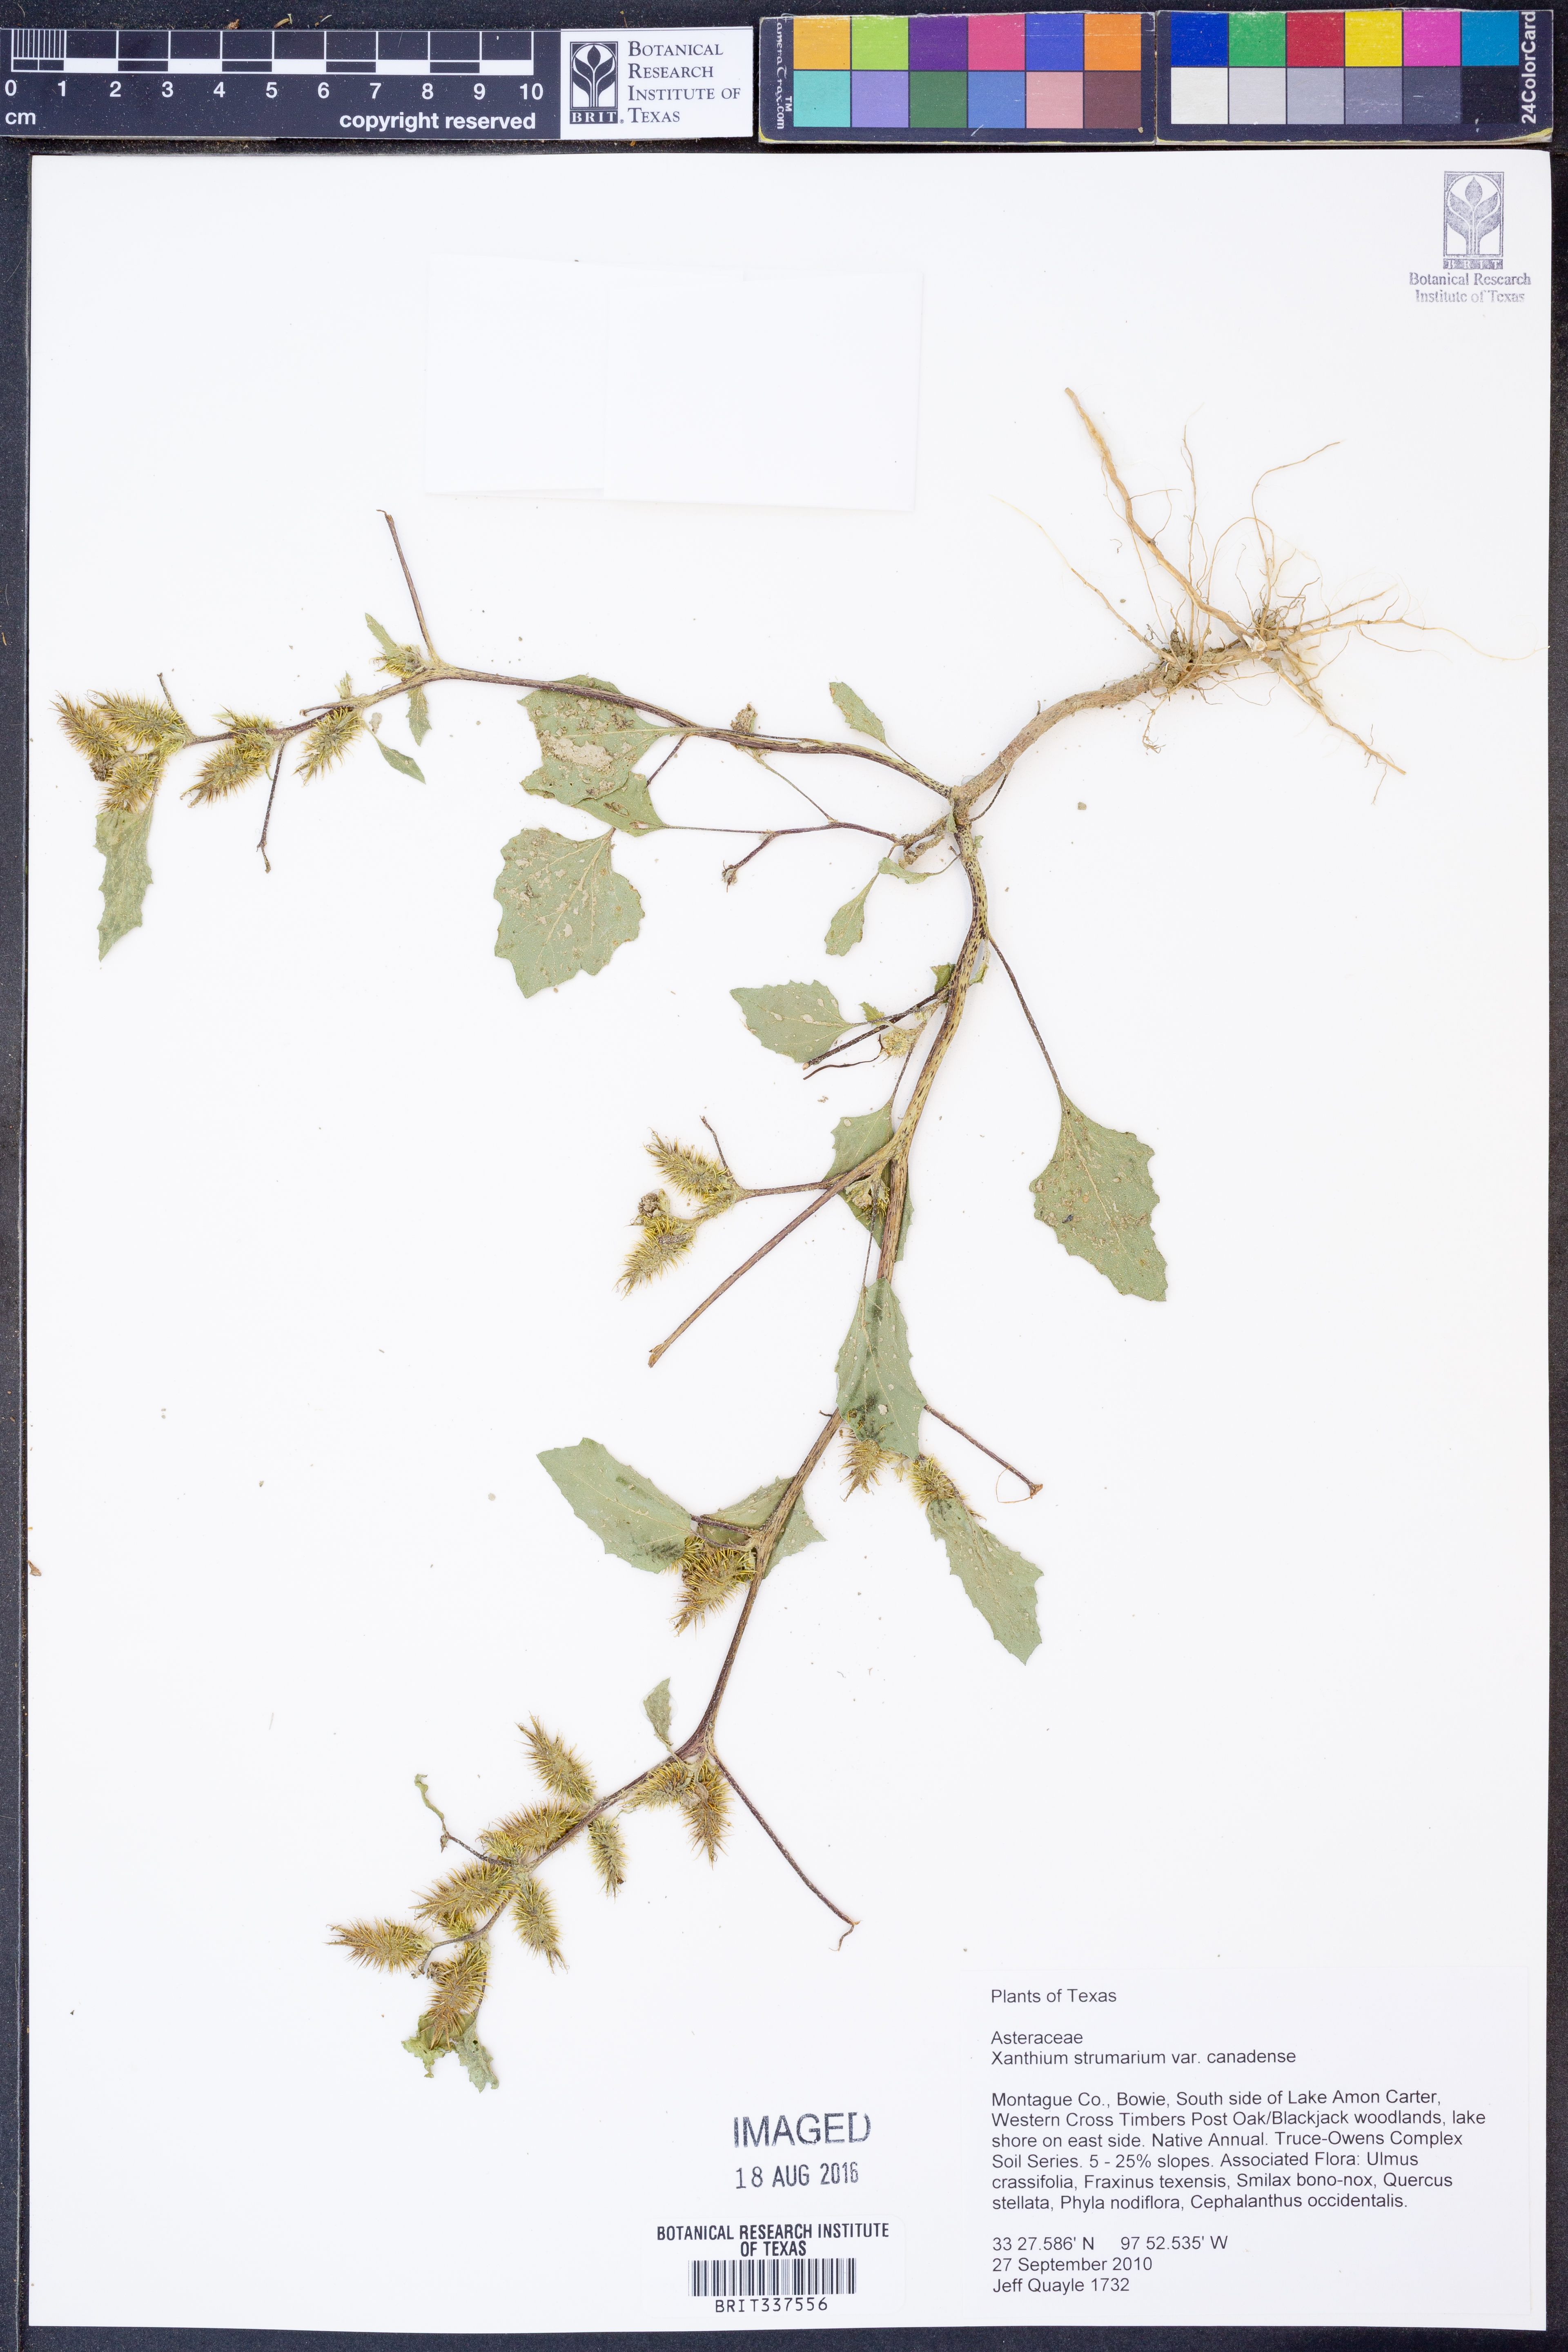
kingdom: Plantae
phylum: Tracheophyta
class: Magnoliopsida
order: Asterales
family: Asteraceae
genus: Xanthium
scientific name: Xanthium orientale
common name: Californian burr
